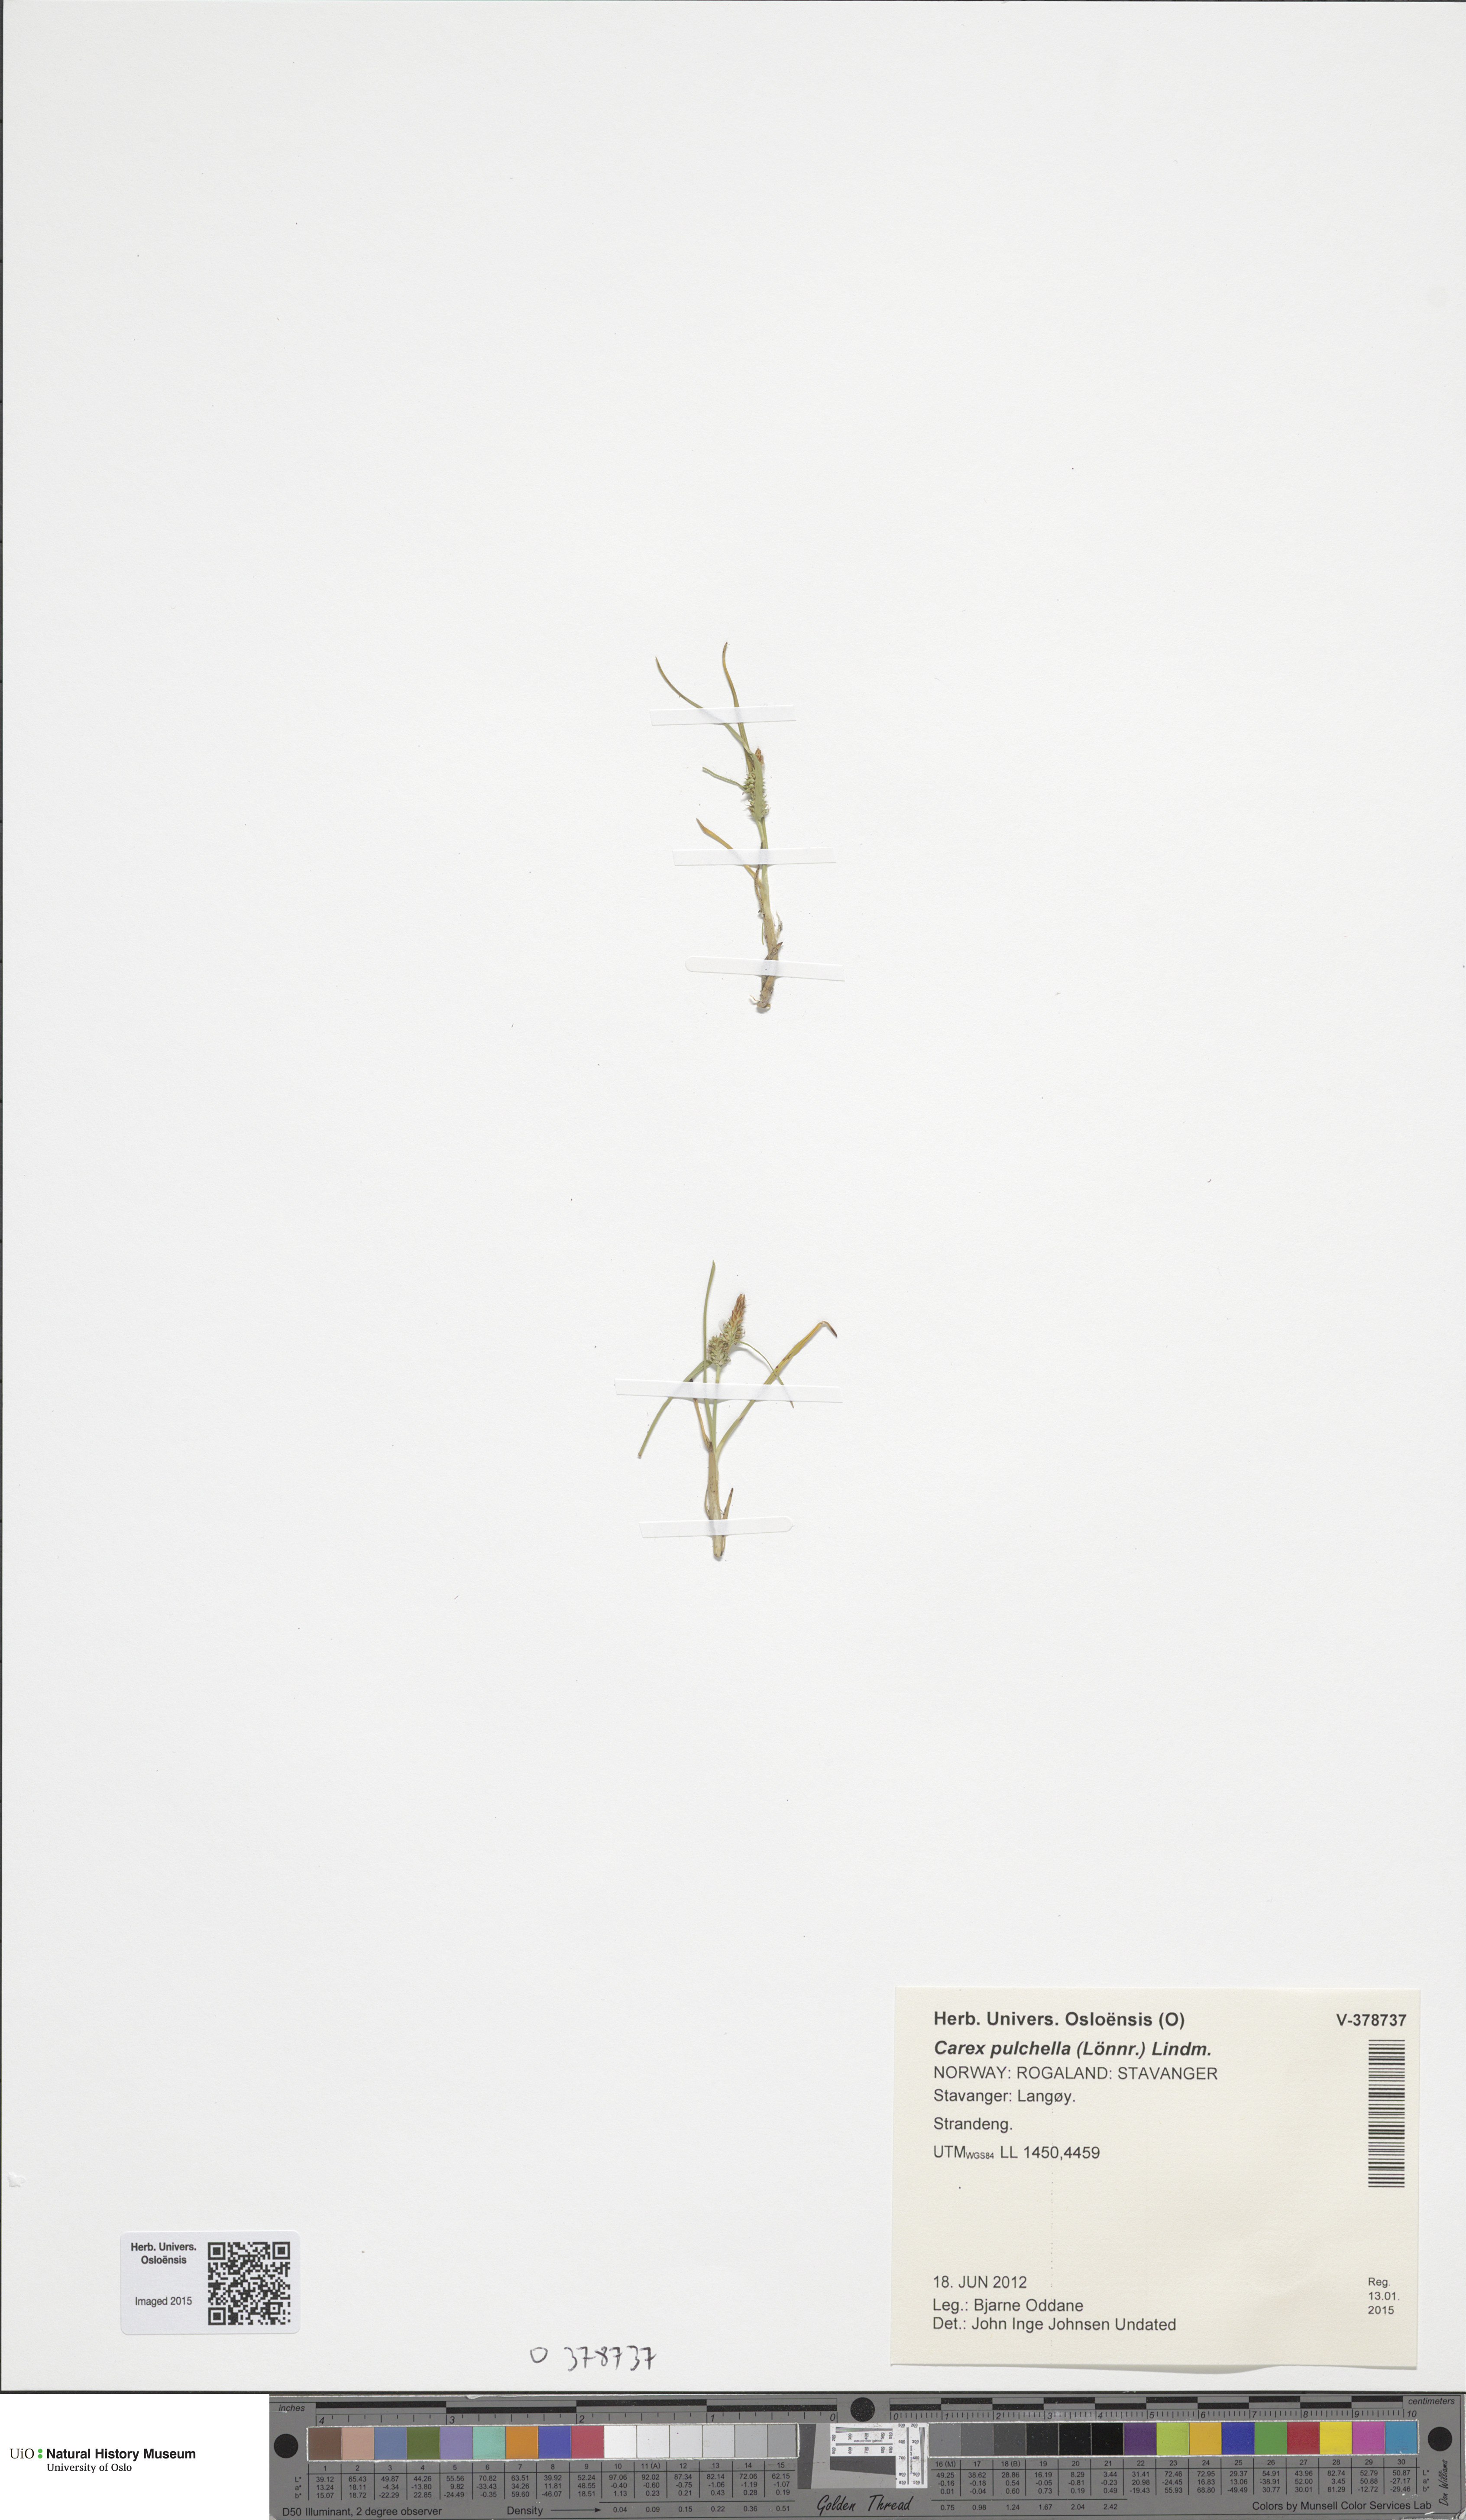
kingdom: Plantae
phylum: Tracheophyta
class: Liliopsida
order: Poales
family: Cyperaceae
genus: Carex
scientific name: Carex oederi
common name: Common & small-fruited yellow-sedge
